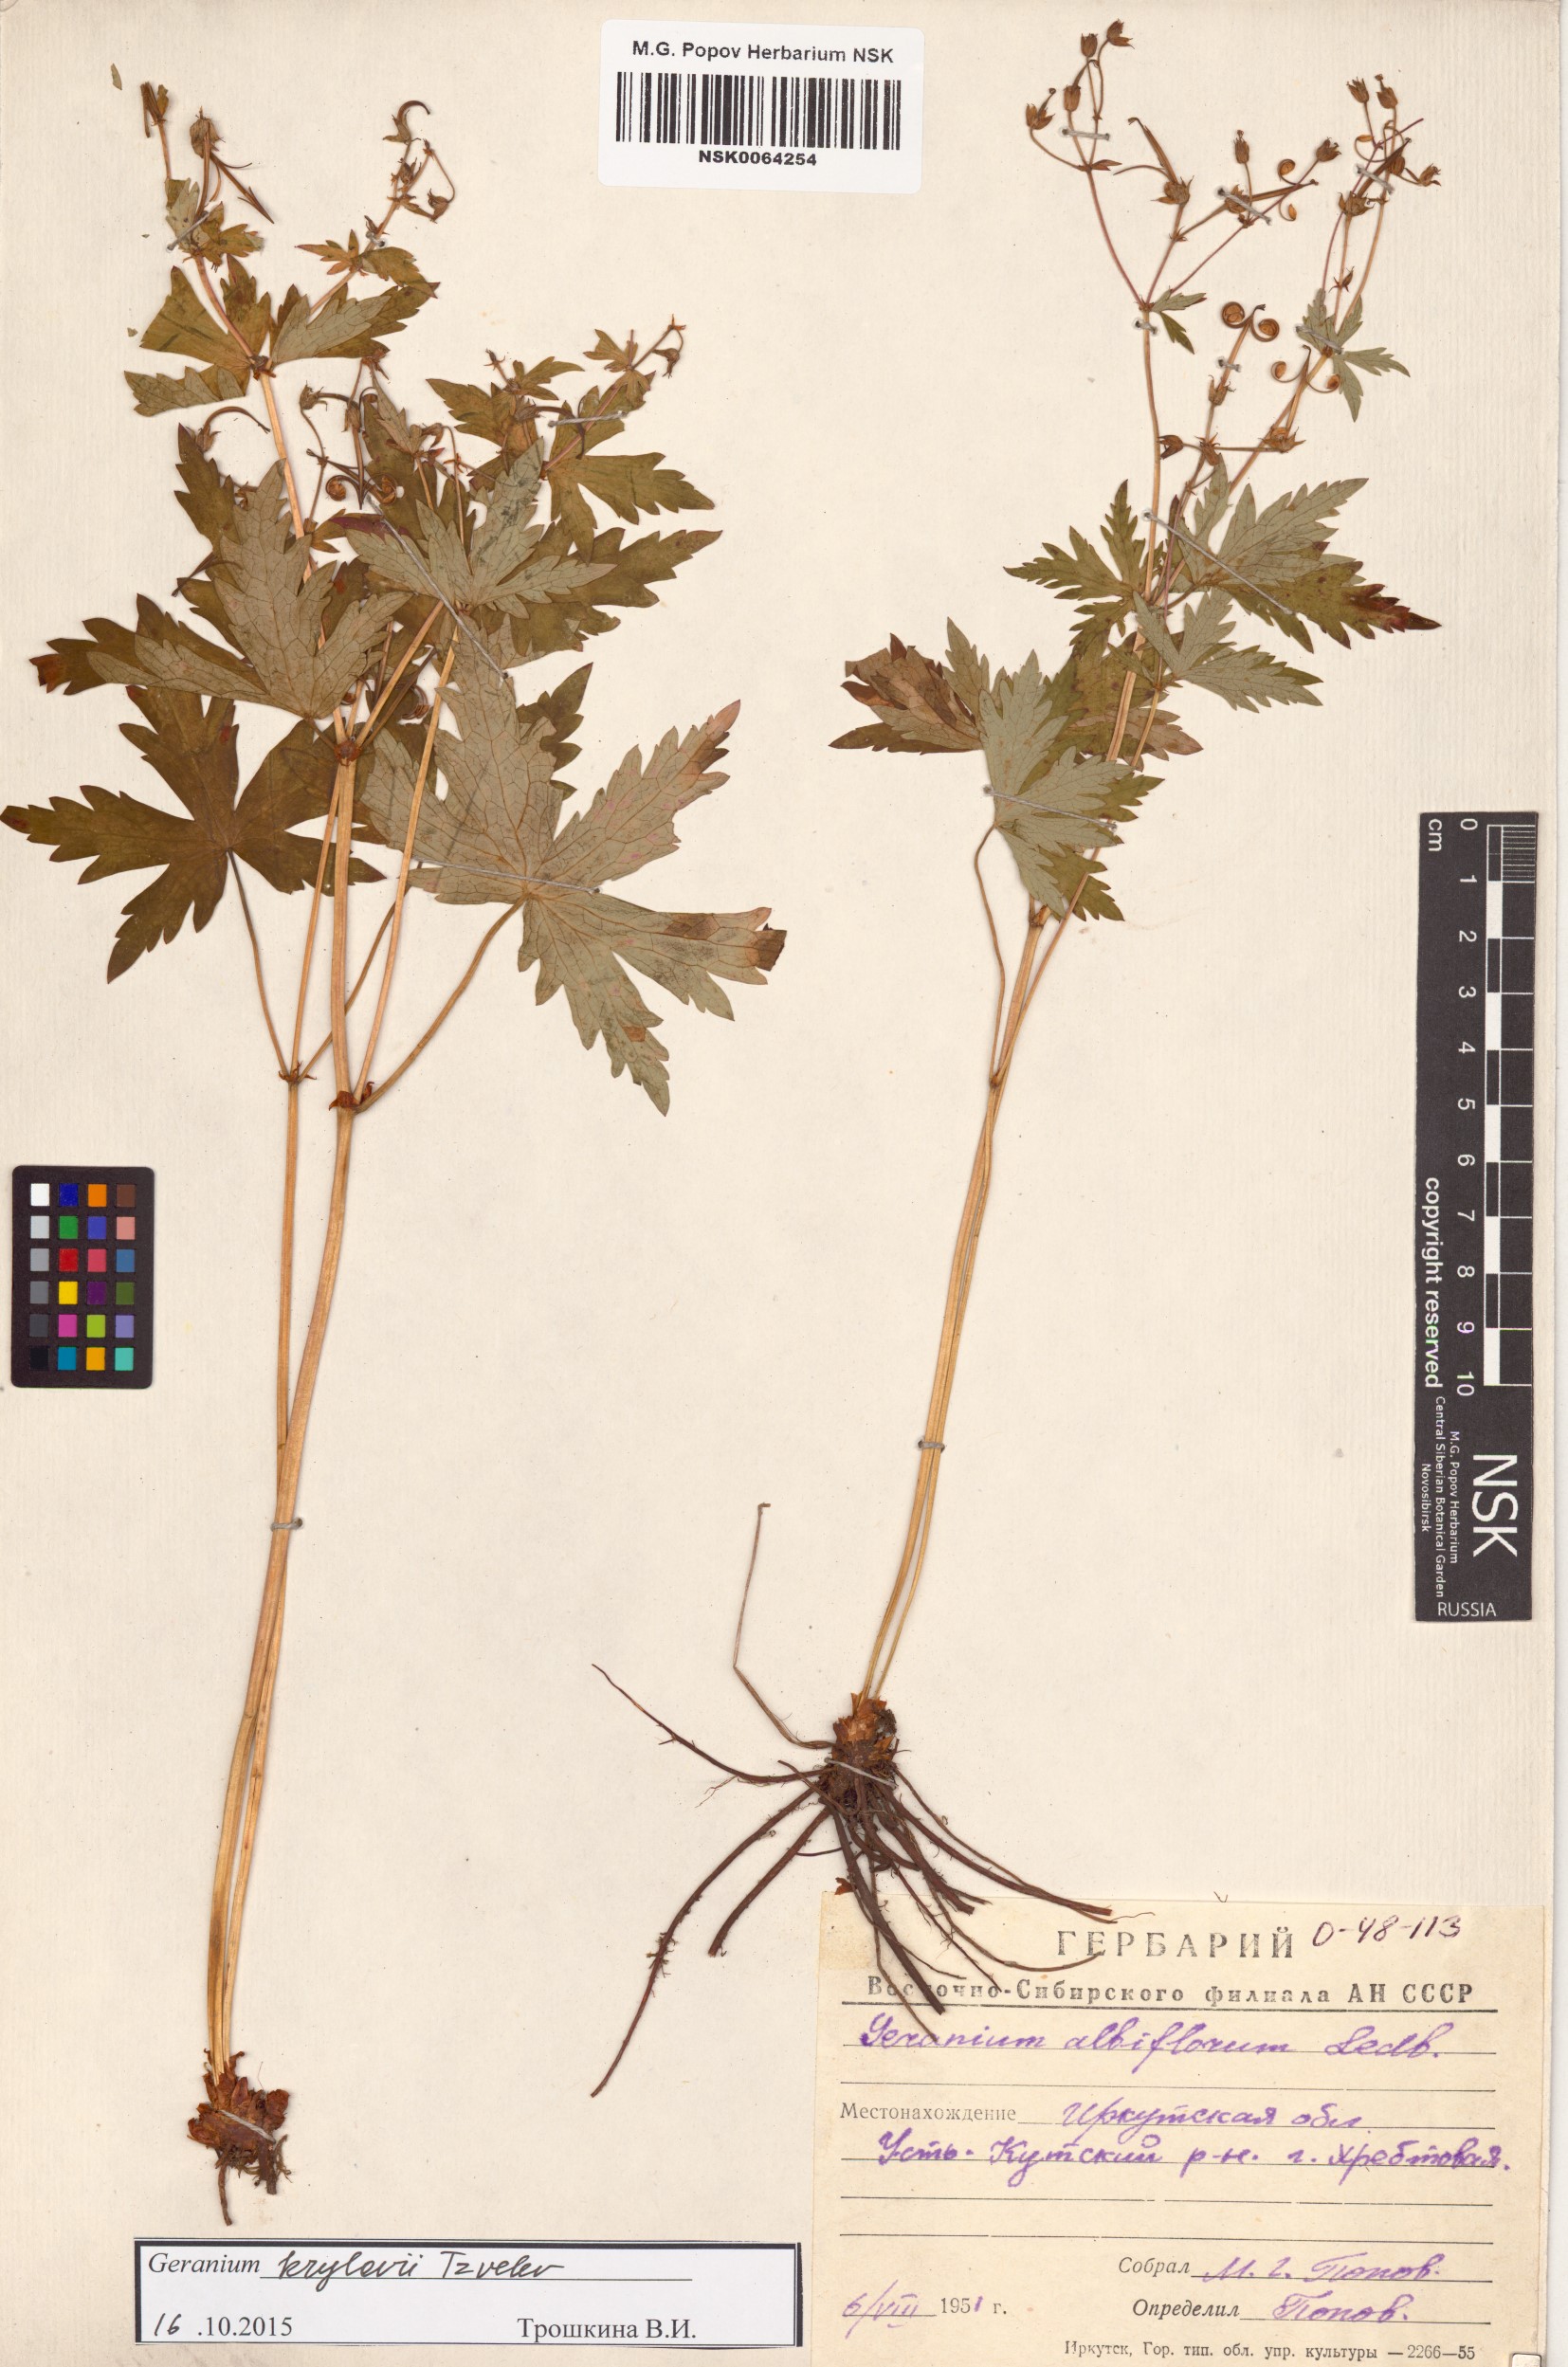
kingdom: Plantae
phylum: Tracheophyta
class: Magnoliopsida
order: Geraniales
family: Geraniaceae
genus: Geranium
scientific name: Geranium sylvaticum
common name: Wood crane's-bill
